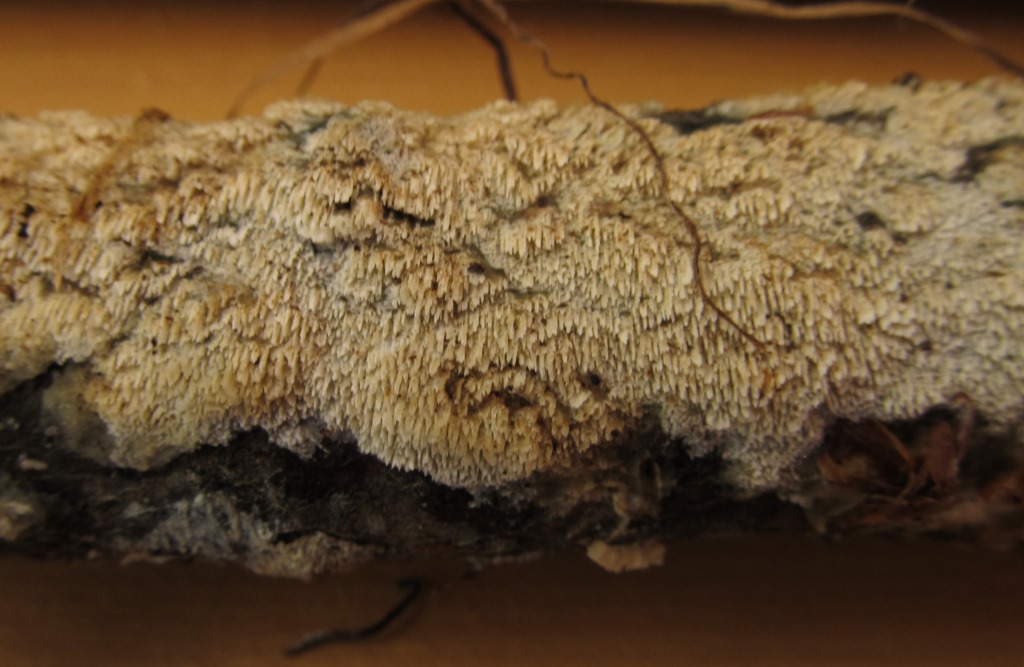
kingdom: Fungi
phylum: Basidiomycota
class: Agaricomycetes
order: Hymenochaetales
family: Schizoporaceae
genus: Schizopora
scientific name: Schizopora paradoxa
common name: hvid tandsvamp
